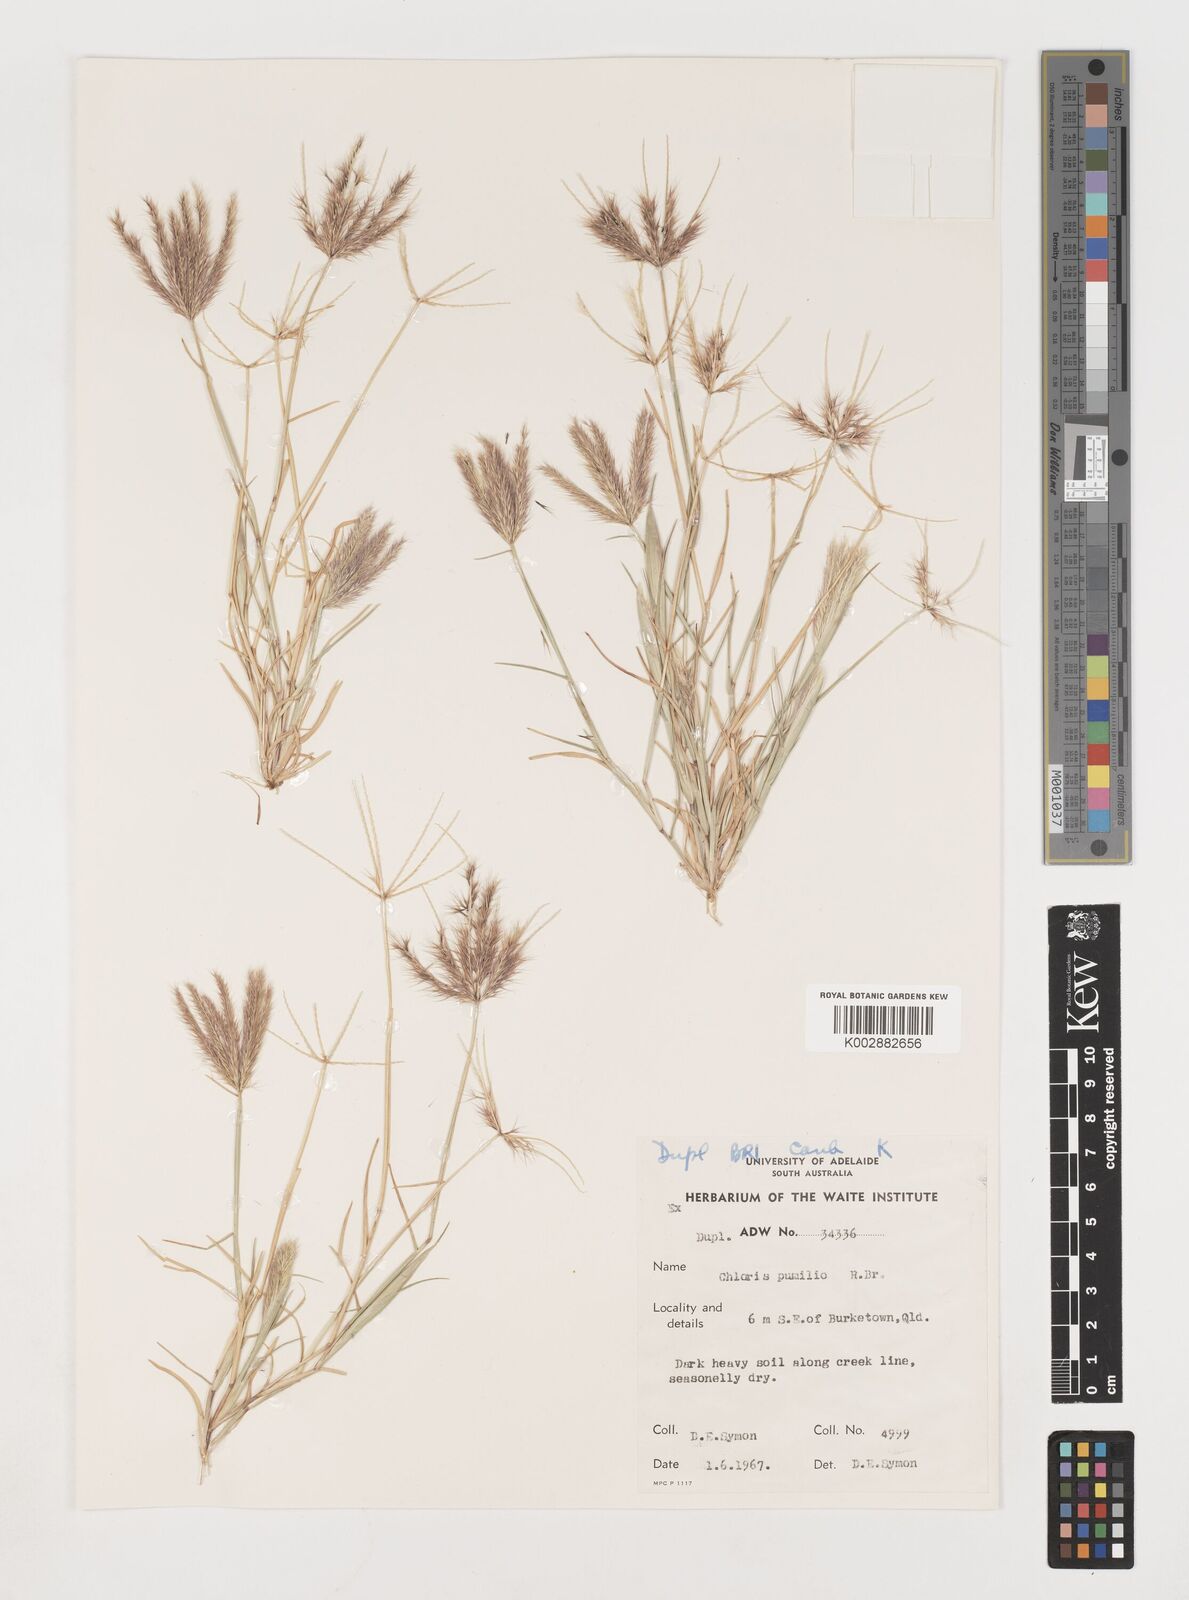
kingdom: Plantae
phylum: Tracheophyta
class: Liliopsida
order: Poales
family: Poaceae
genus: Chloris
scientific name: Chloris lobata
